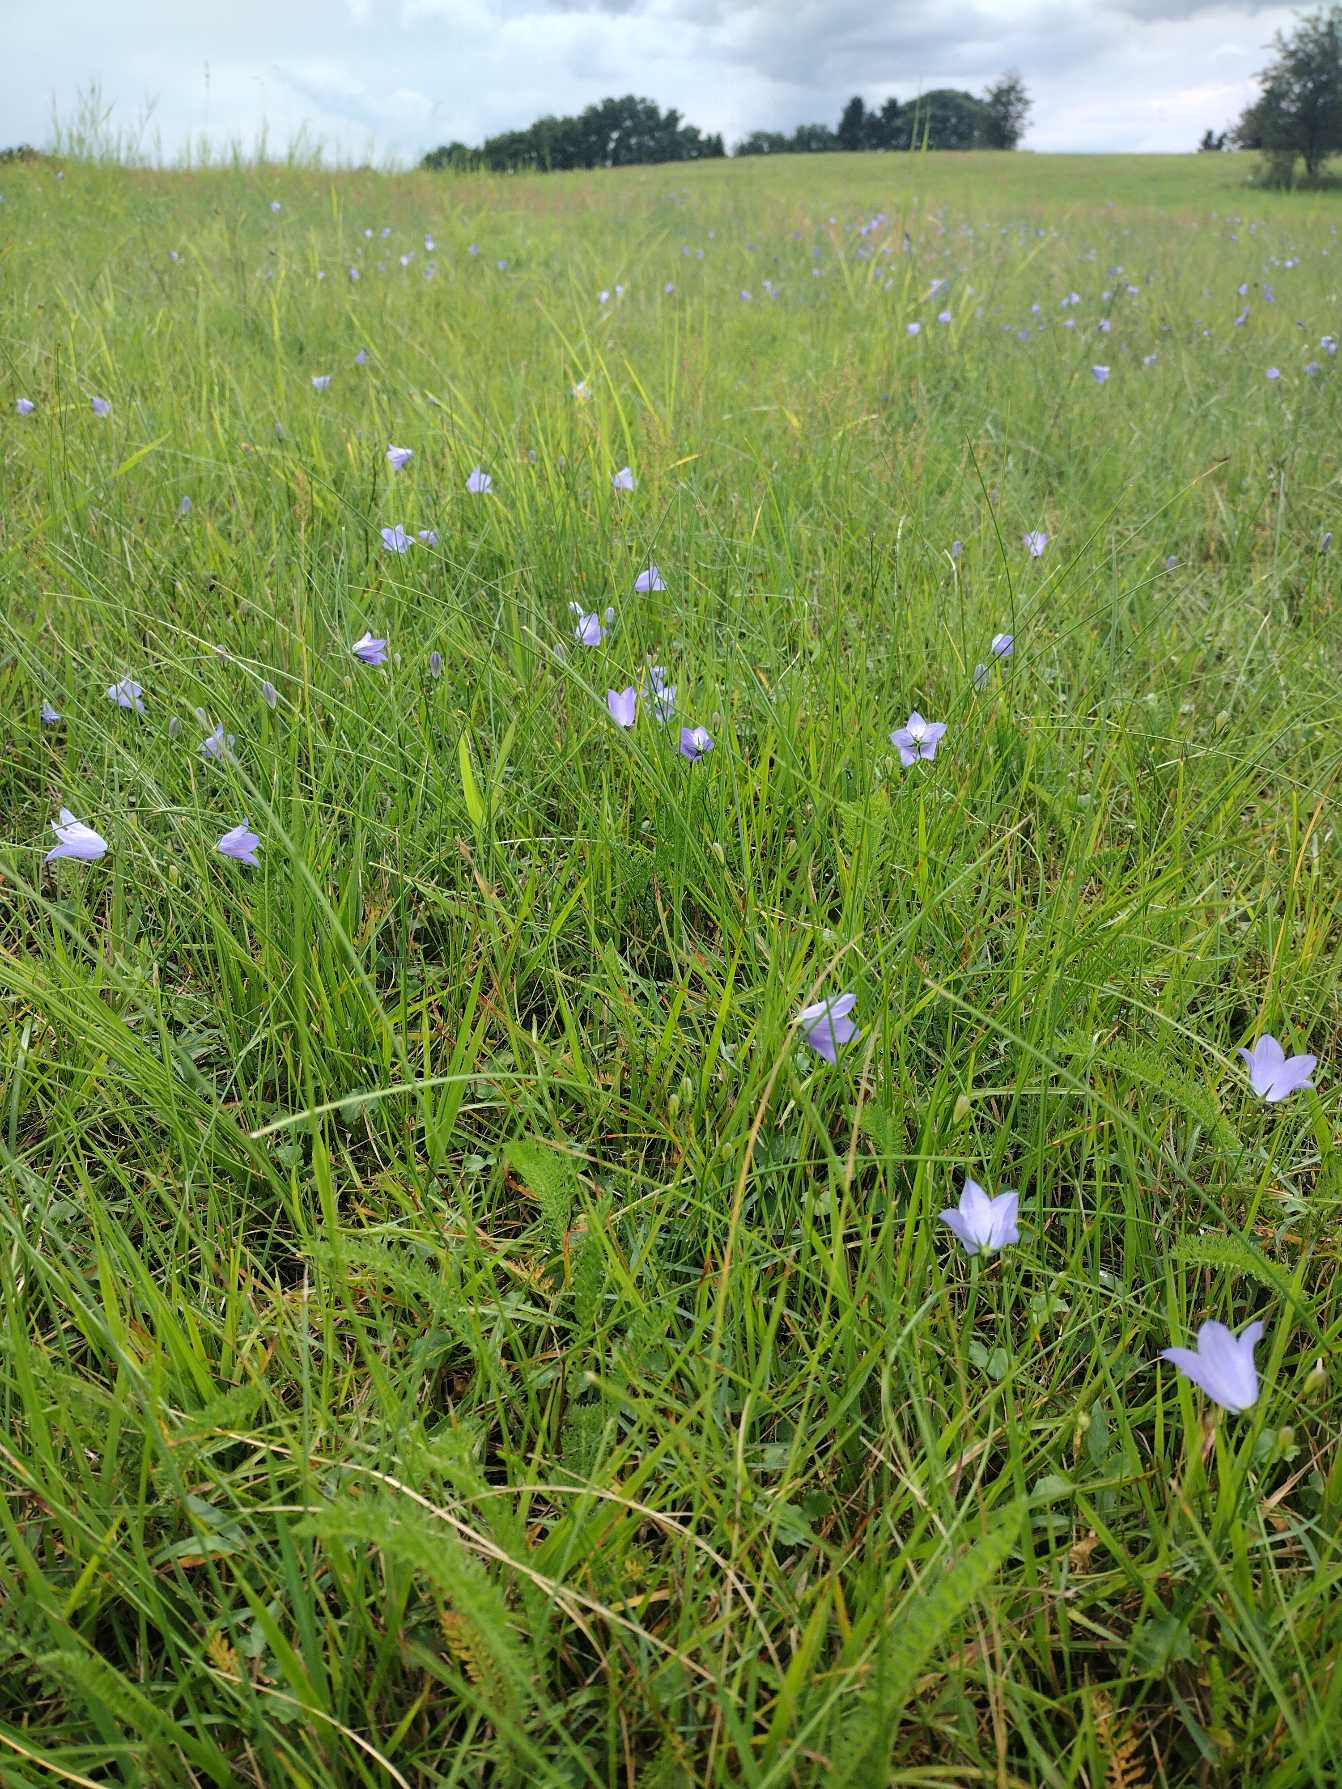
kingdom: Plantae
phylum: Tracheophyta
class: Magnoliopsida
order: Asterales
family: Campanulaceae
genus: Campanula
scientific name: Campanula rotundifolia
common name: Liden klokke
